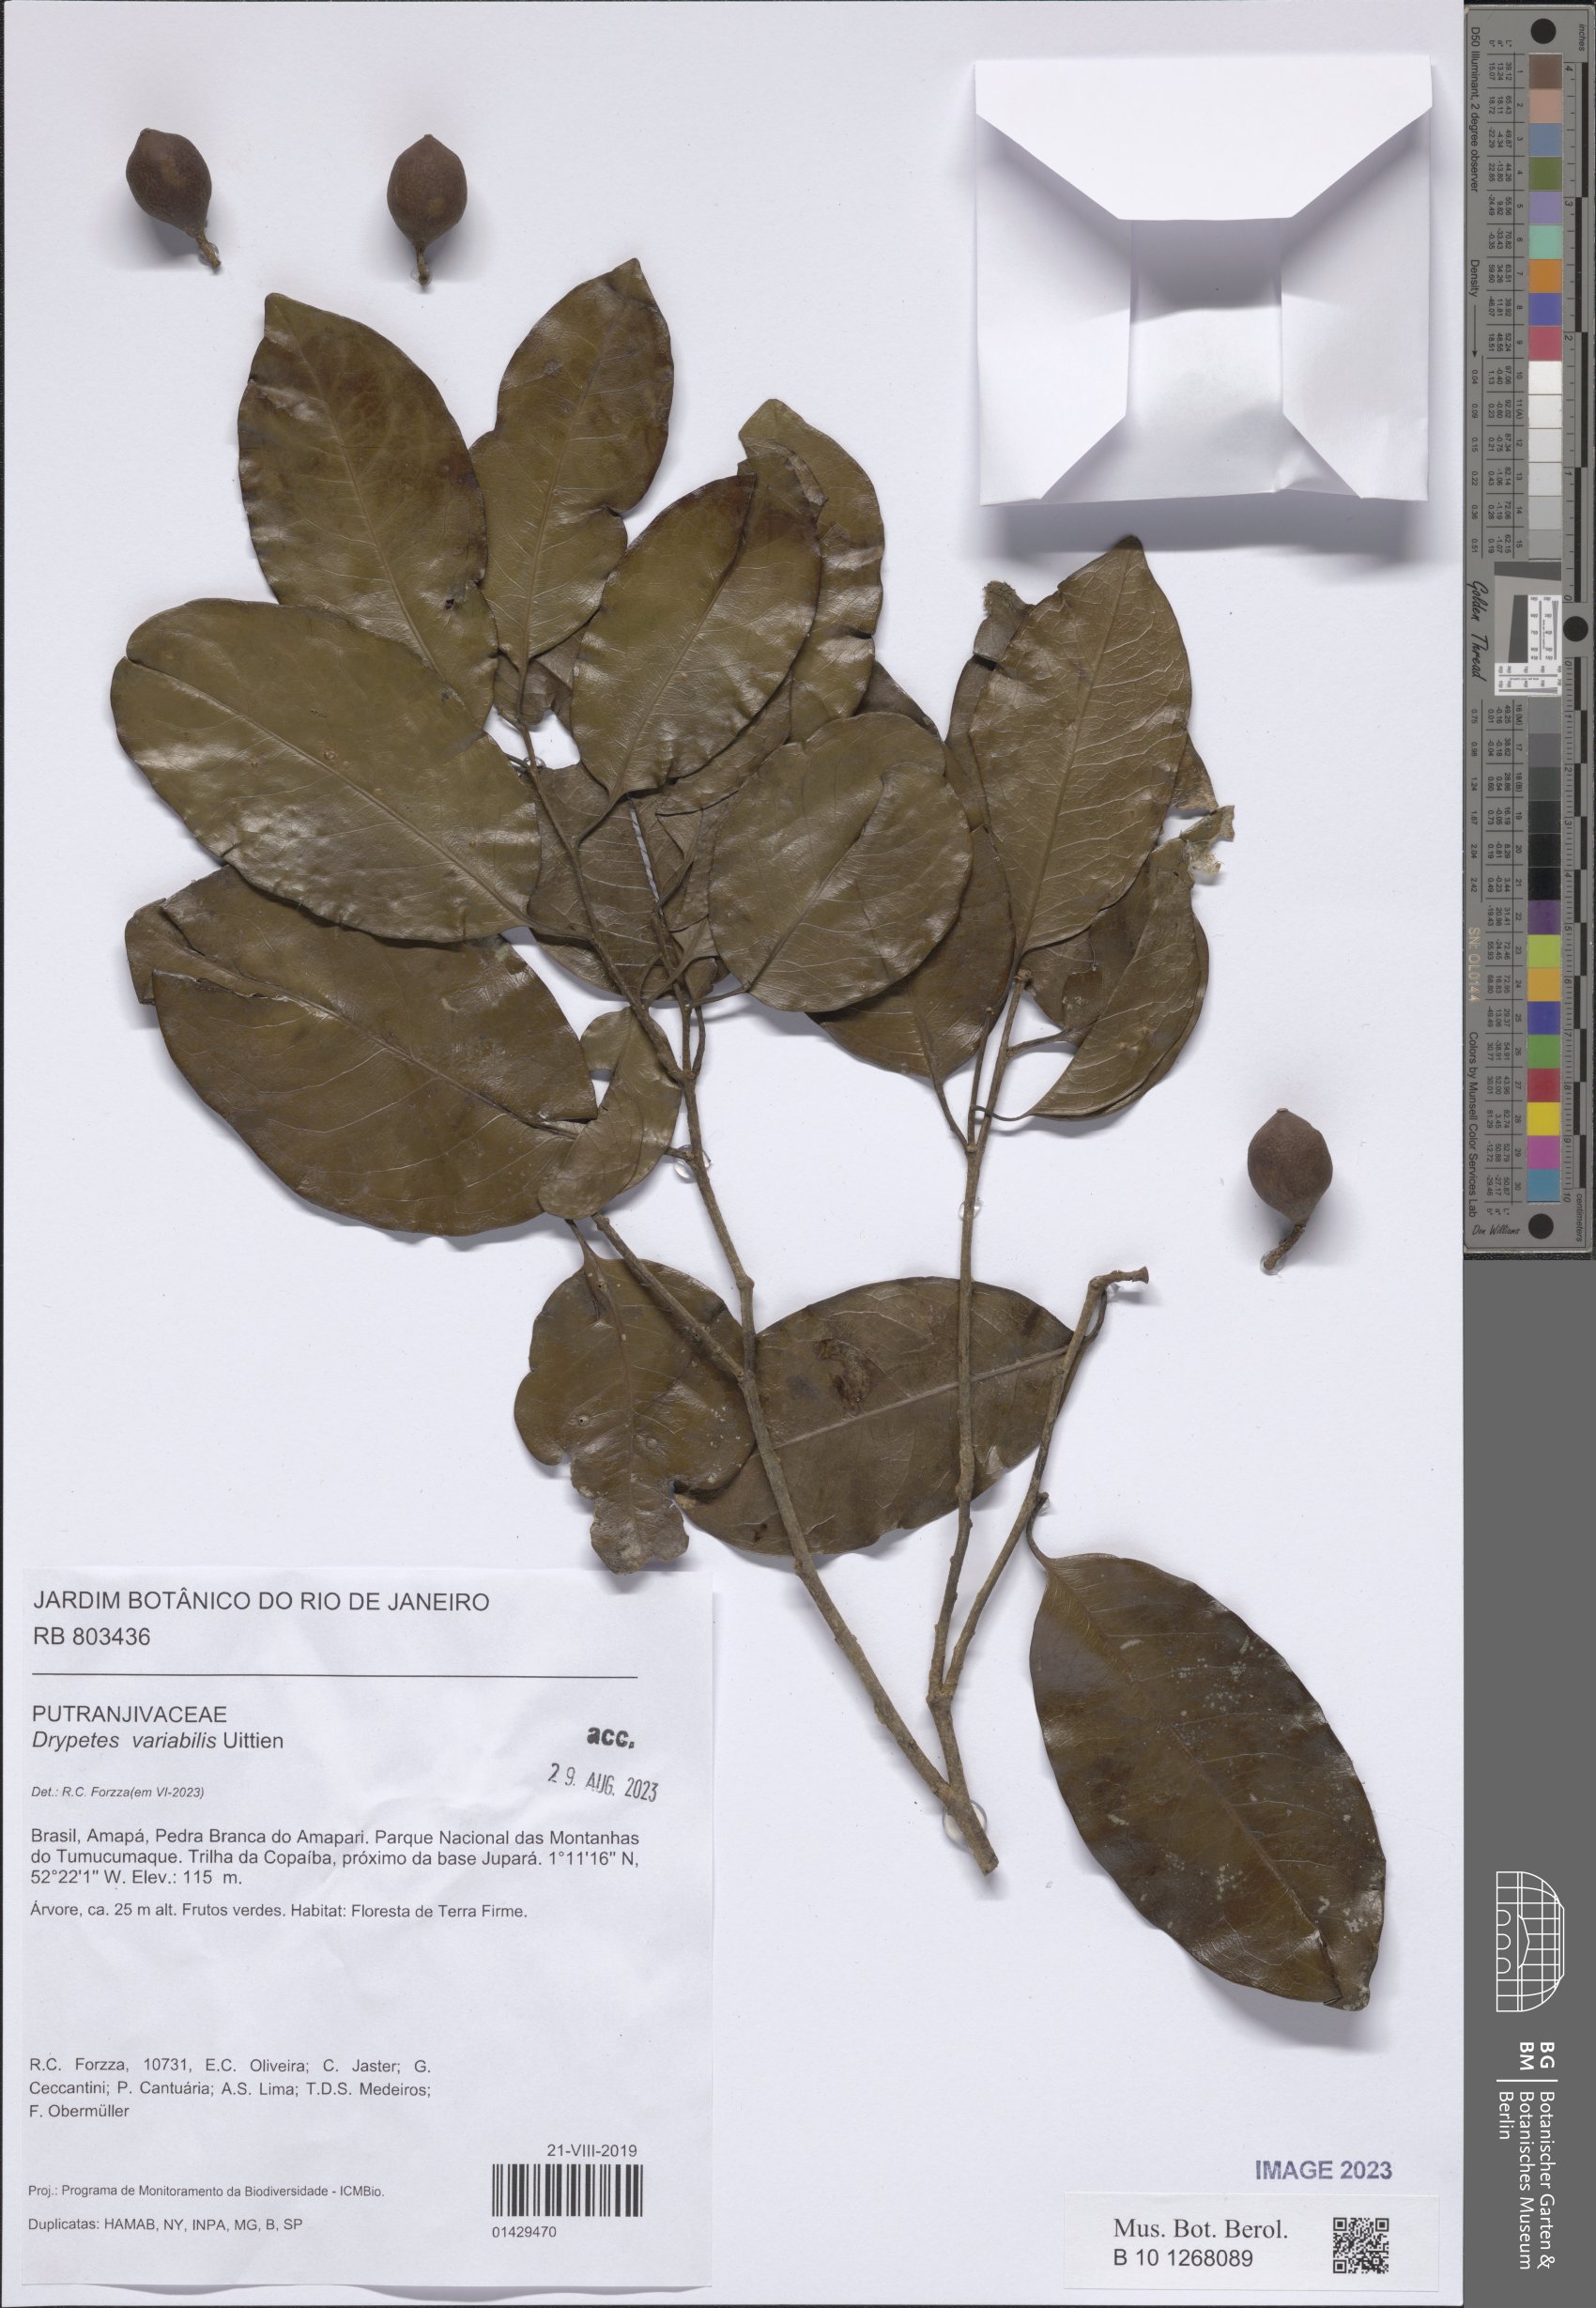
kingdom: Plantae
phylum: Tracheophyta
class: Magnoliopsida
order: Malpighiales
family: Putranjivaceae
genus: Drypetes
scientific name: Drypetes variabilis
